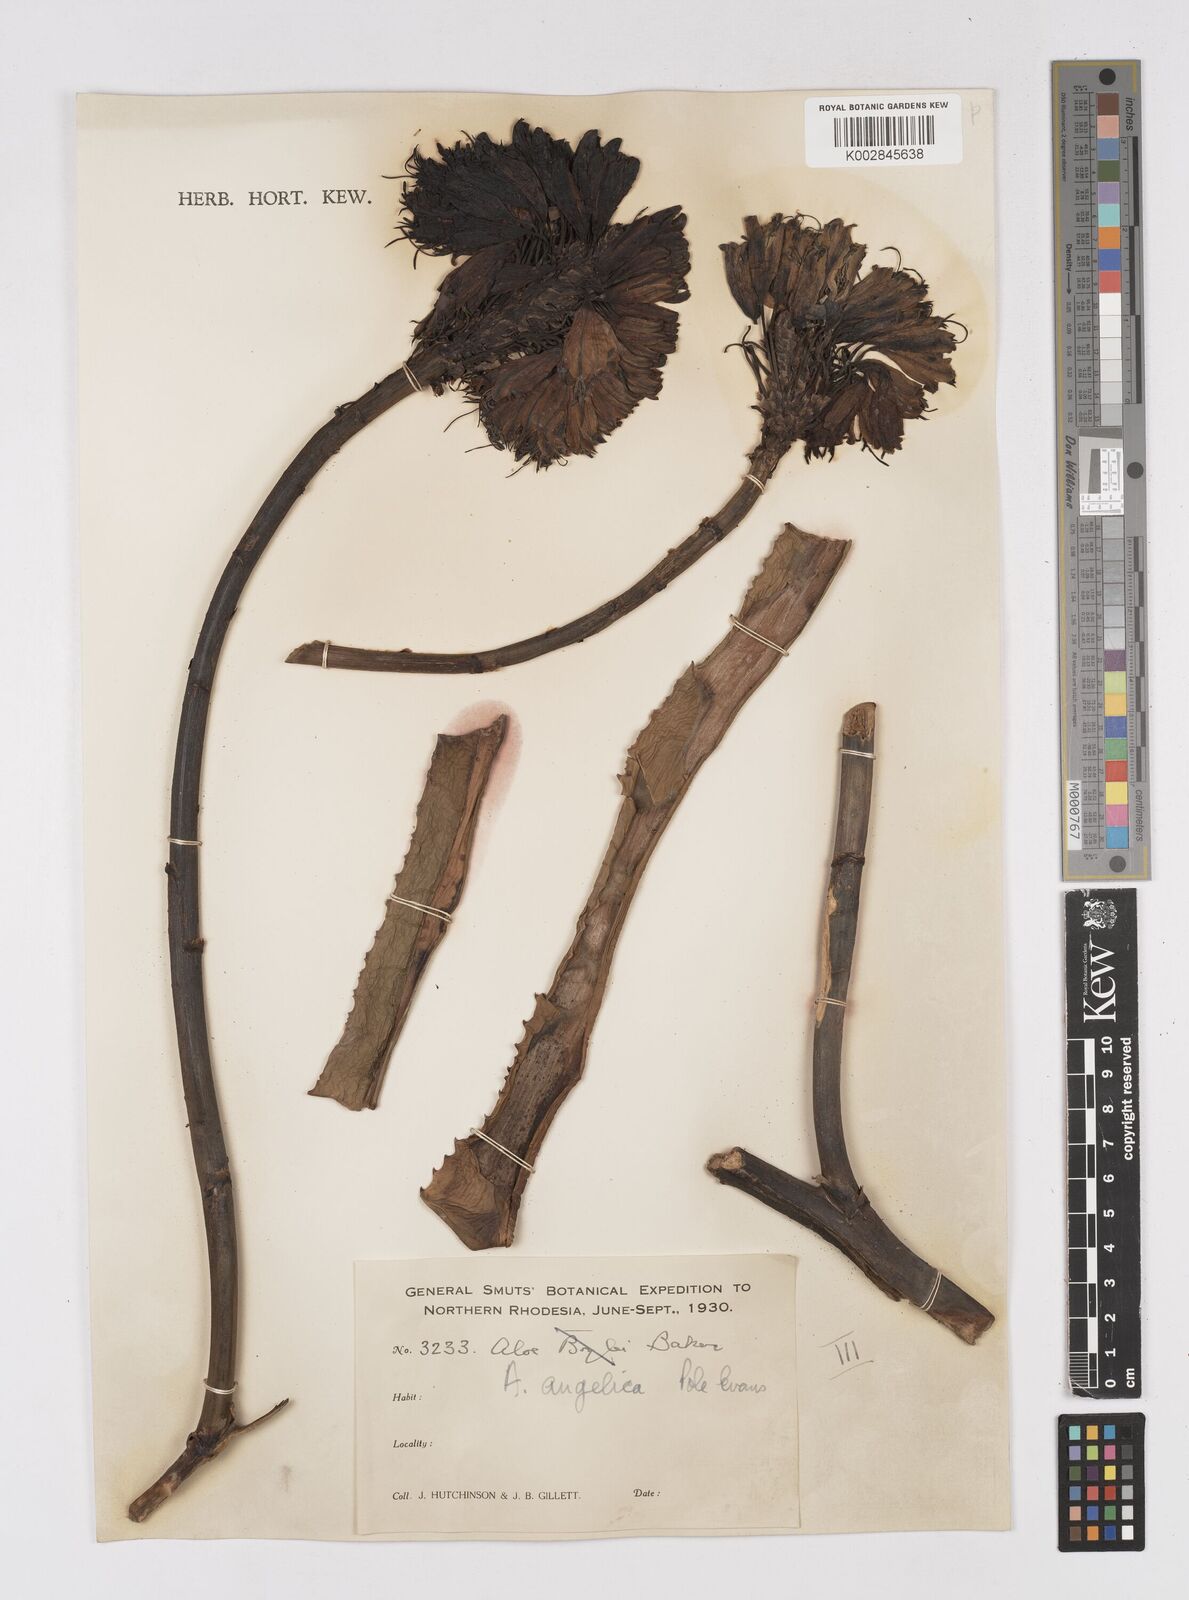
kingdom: Plantae
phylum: Tracheophyta
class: Liliopsida
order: Asparagales
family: Asphodelaceae
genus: Aloe
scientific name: Aloe angelica
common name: Wylliespoort aloe
